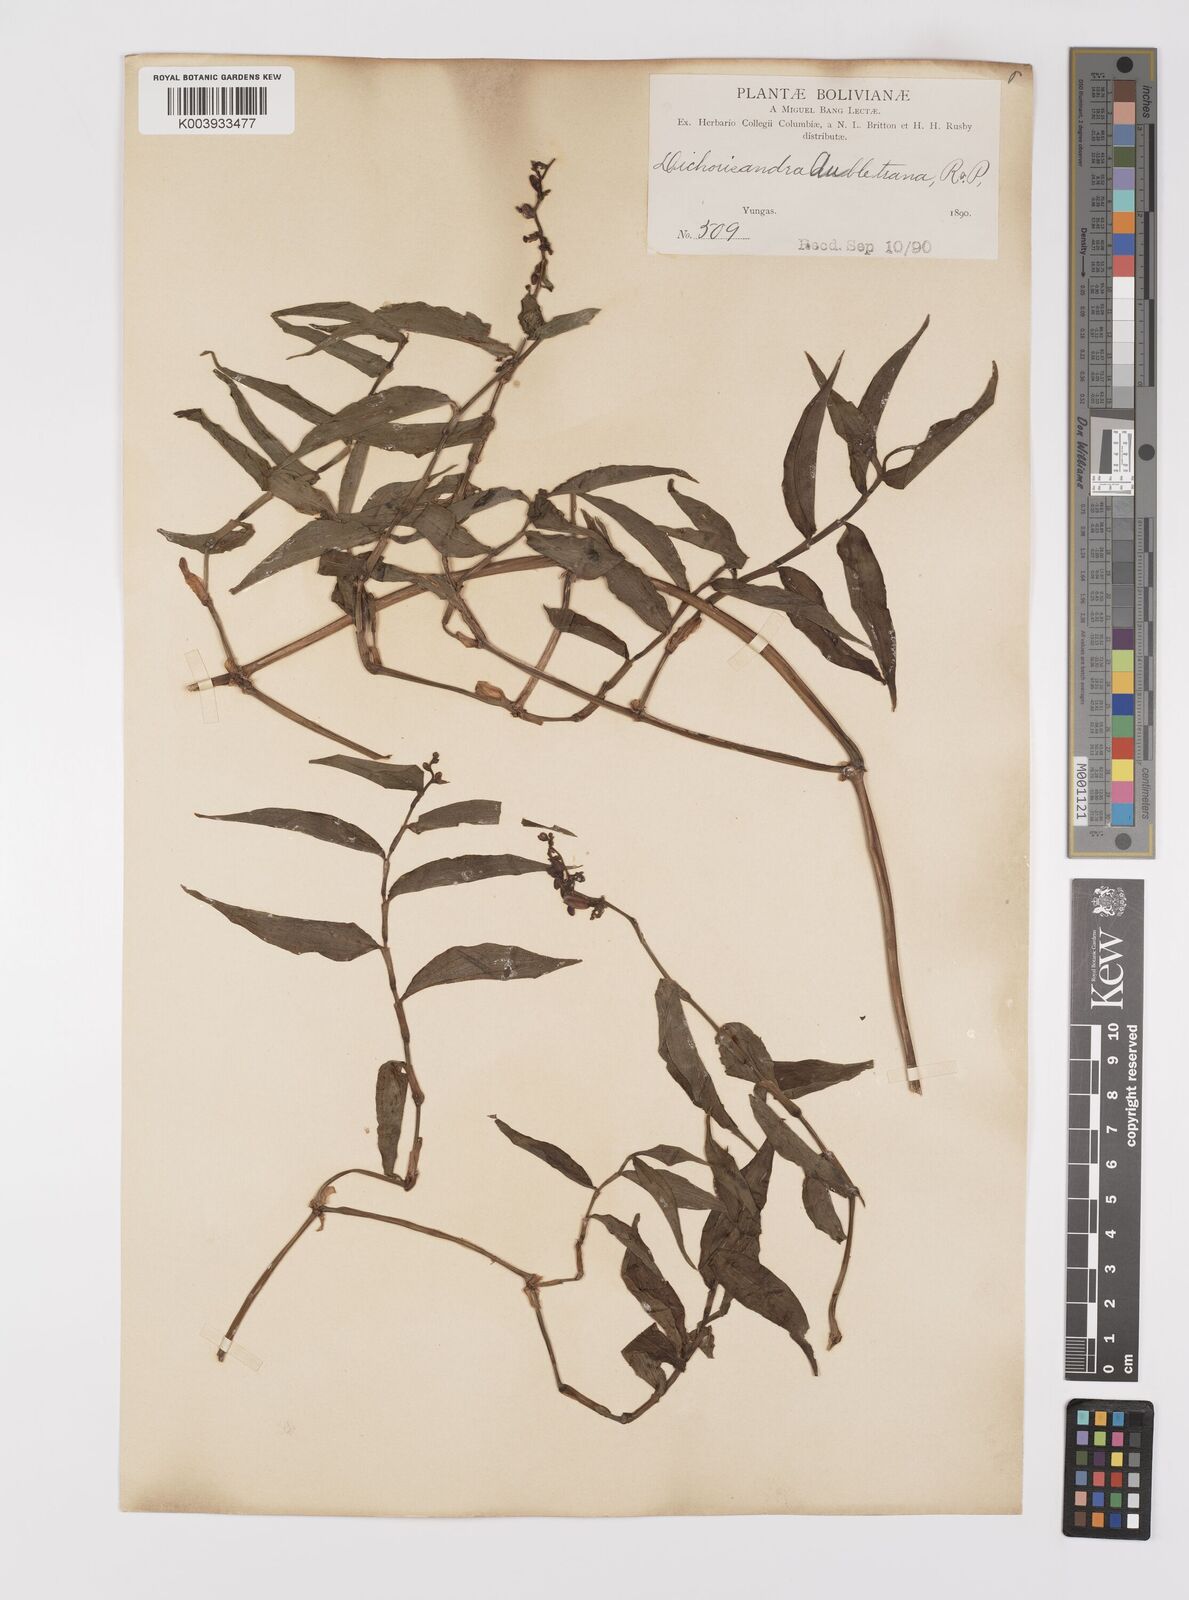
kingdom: Plantae
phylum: Tracheophyta
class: Liliopsida
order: Commelinales
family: Commelinaceae
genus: Dichorisandra
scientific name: Dichorisandra hexandra
